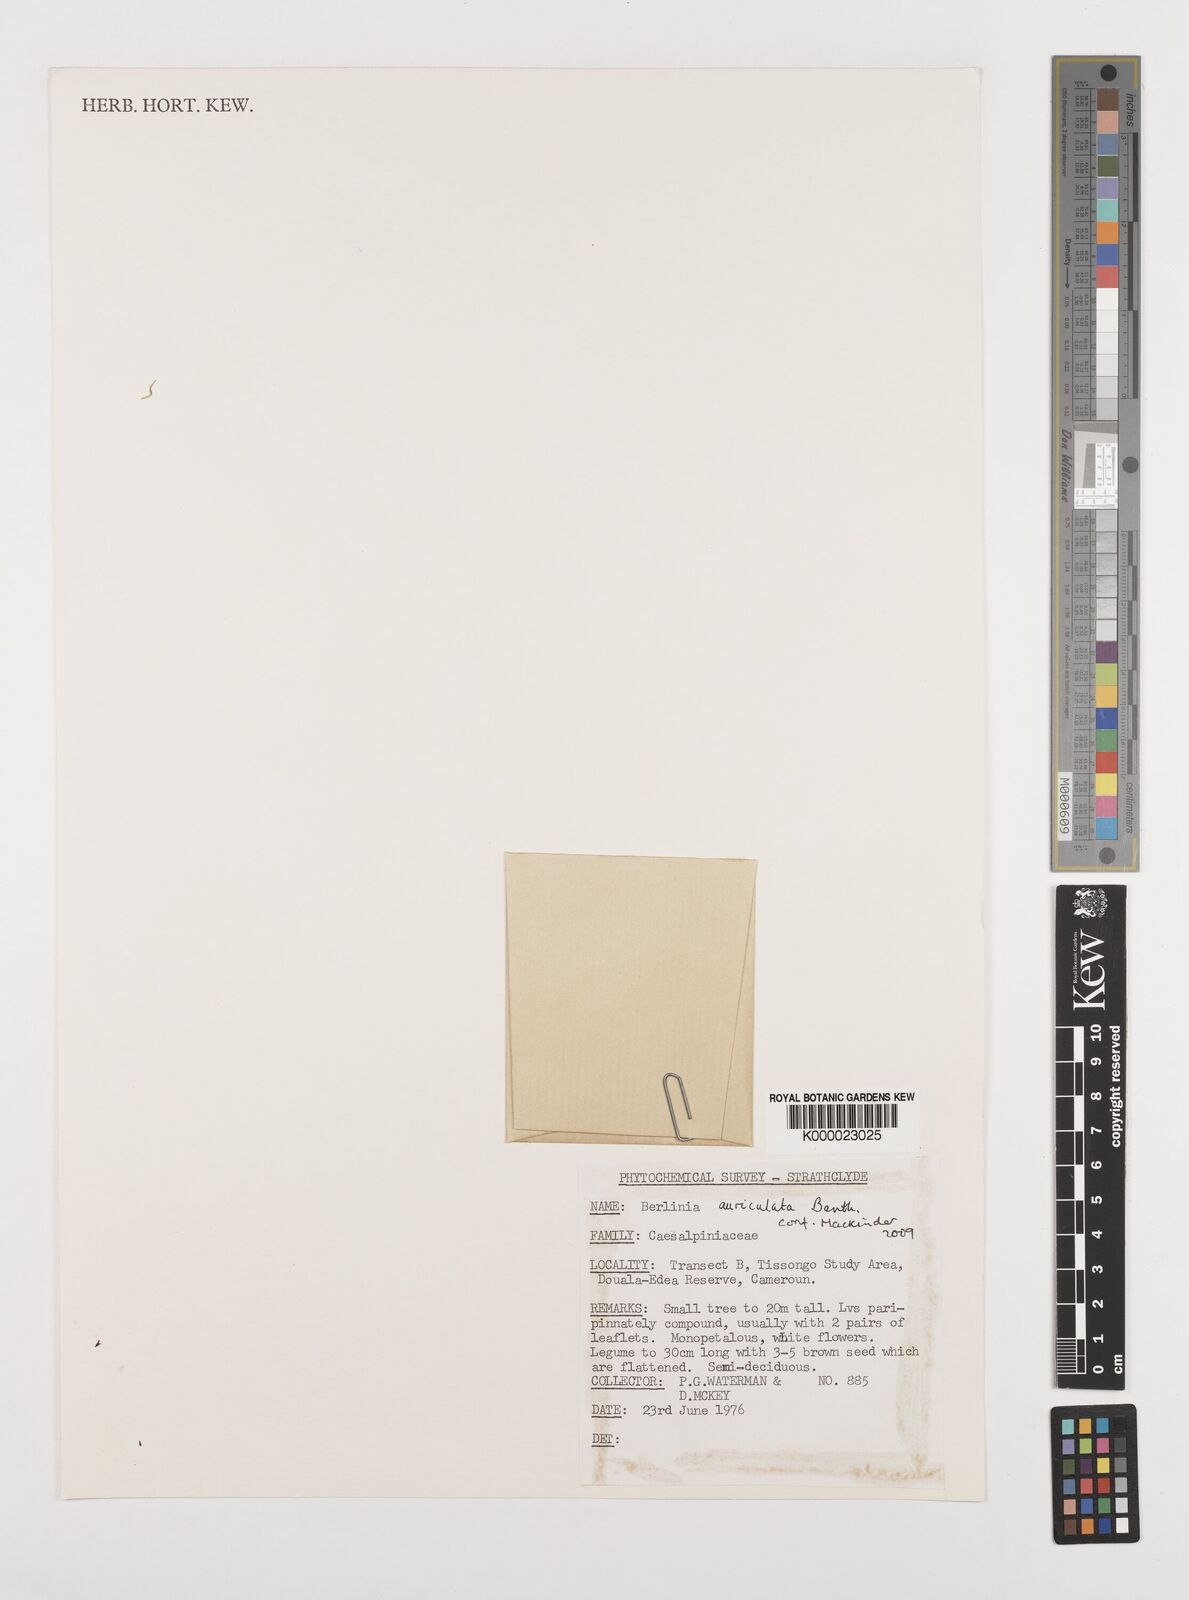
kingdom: Plantae
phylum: Tracheophyta
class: Magnoliopsida
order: Fabales
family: Fabaceae
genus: Berlinia
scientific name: Berlinia auriculata
